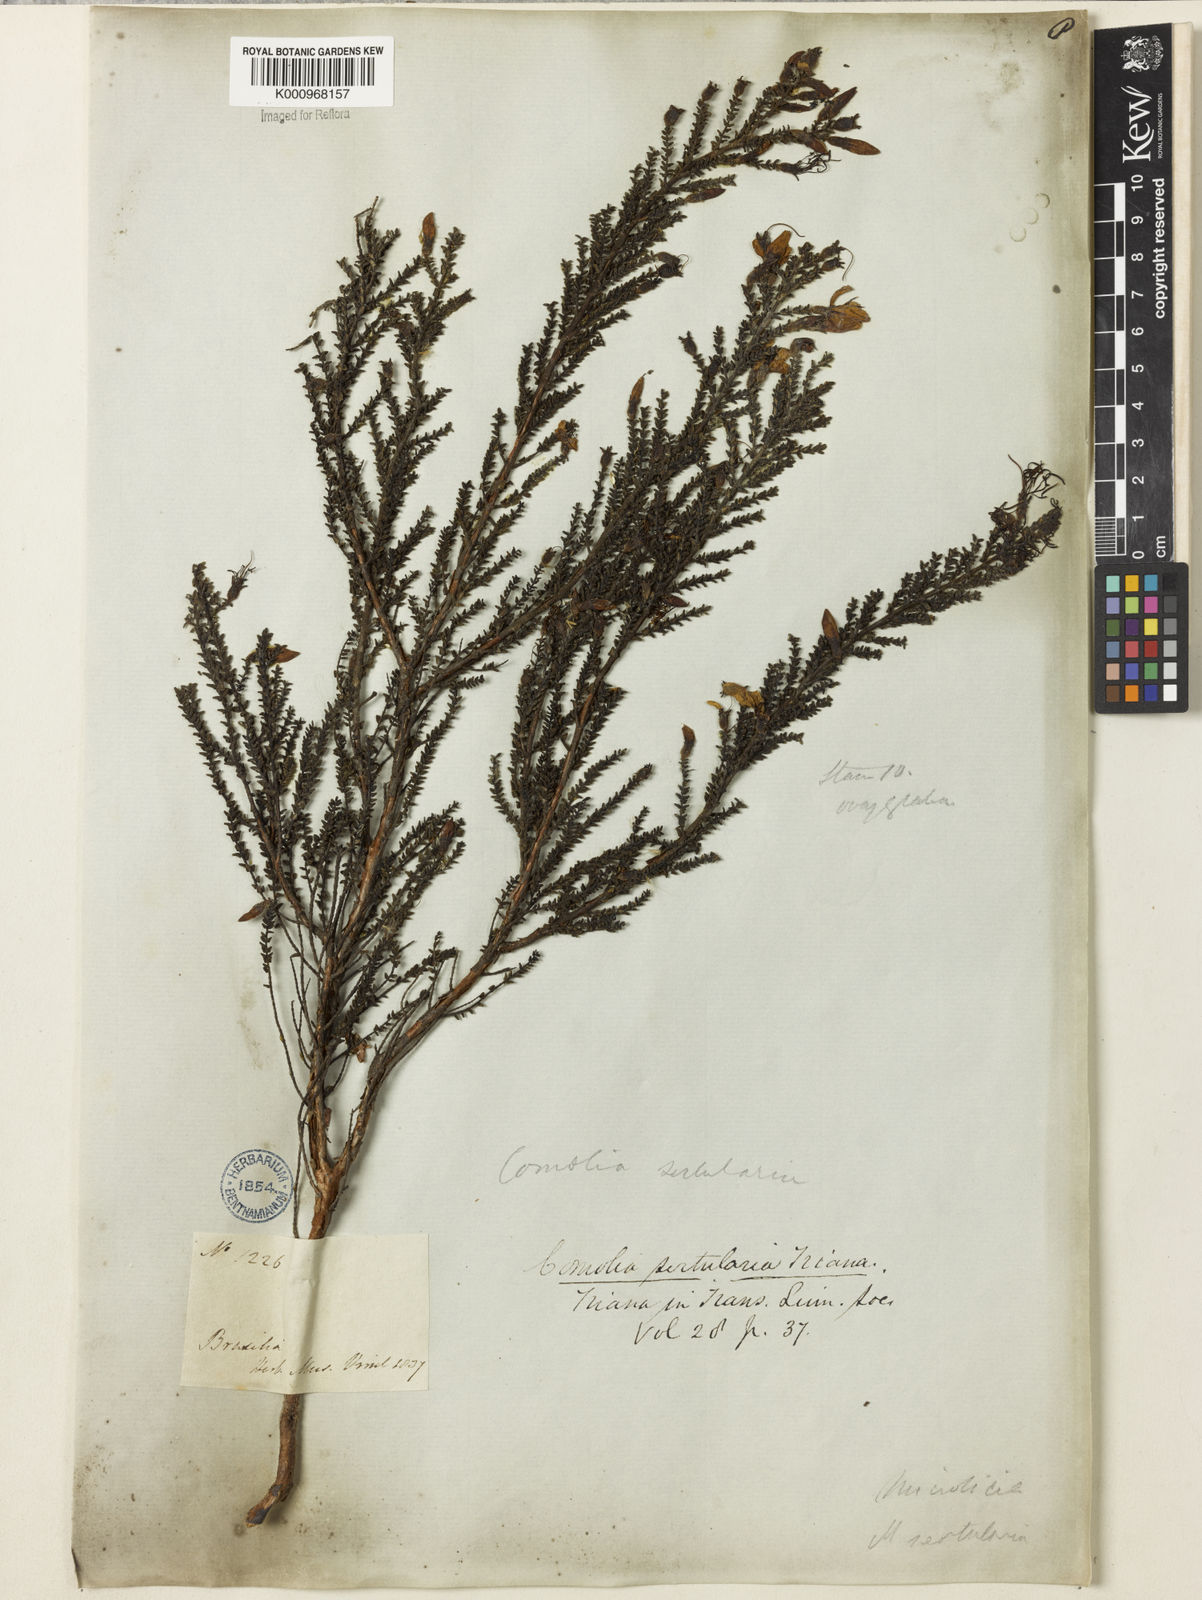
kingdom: Plantae
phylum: Tracheophyta
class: Magnoliopsida
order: Myrtales
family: Melastomataceae
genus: Fritzschia
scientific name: Fritzschia sertularia
